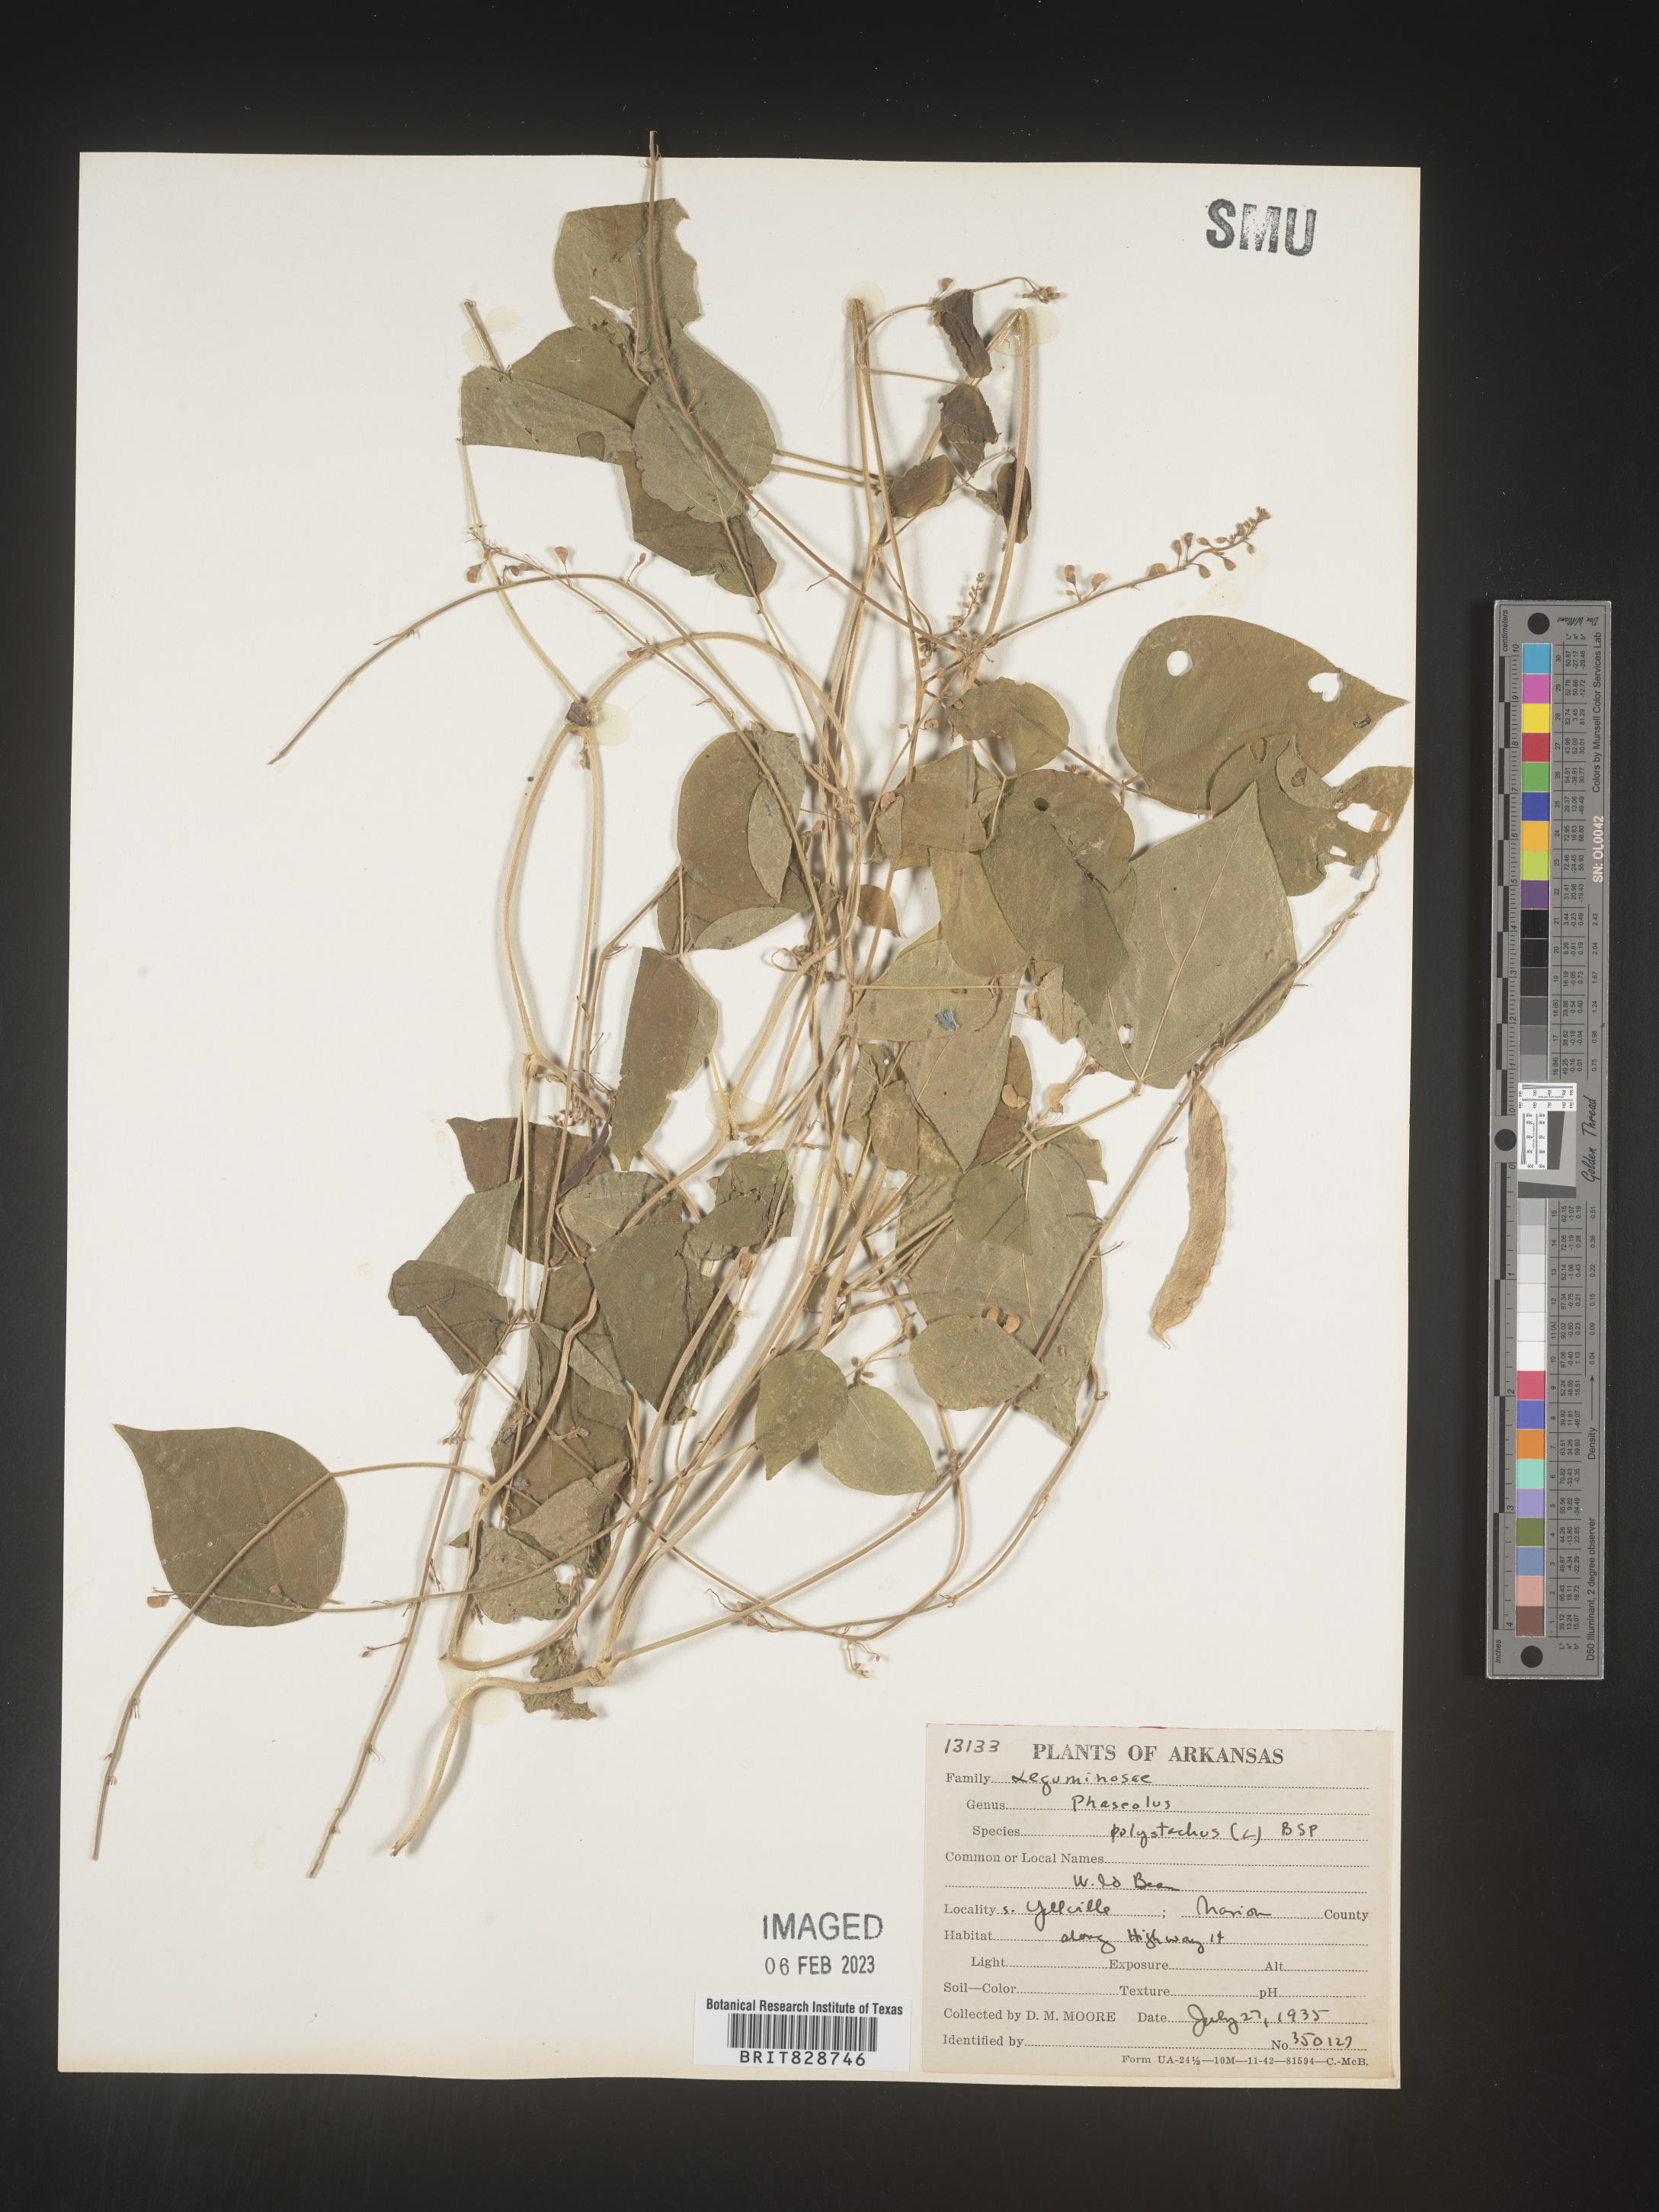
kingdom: Plantae
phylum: Tracheophyta
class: Magnoliopsida
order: Fabales
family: Fabaceae
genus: Phaseolus
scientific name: Phaseolus polystachios
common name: Thicket bean
